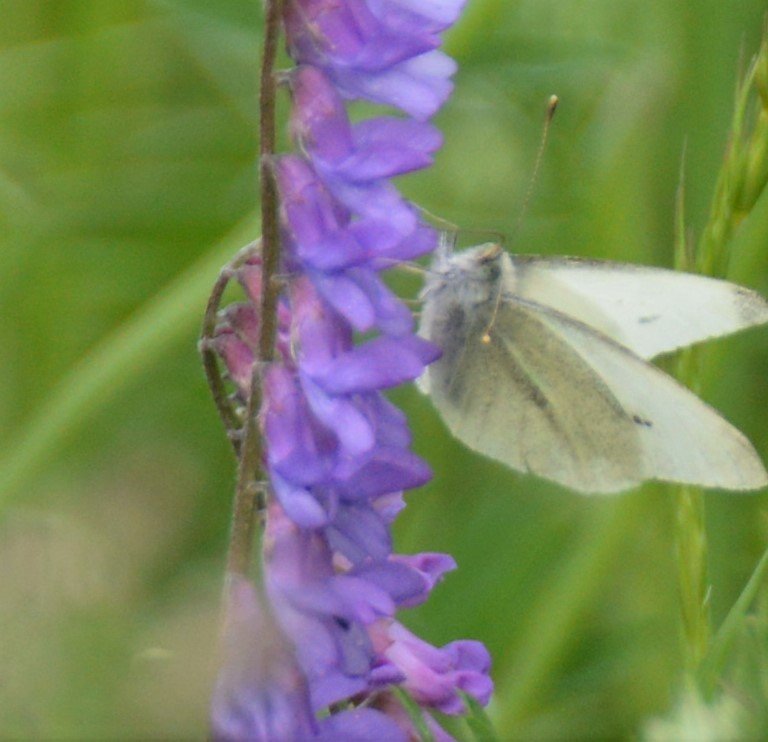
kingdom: Animalia
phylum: Arthropoda
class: Insecta
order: Lepidoptera
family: Pieridae
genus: Pieris
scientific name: Pieris rapae
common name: Cabbage White
